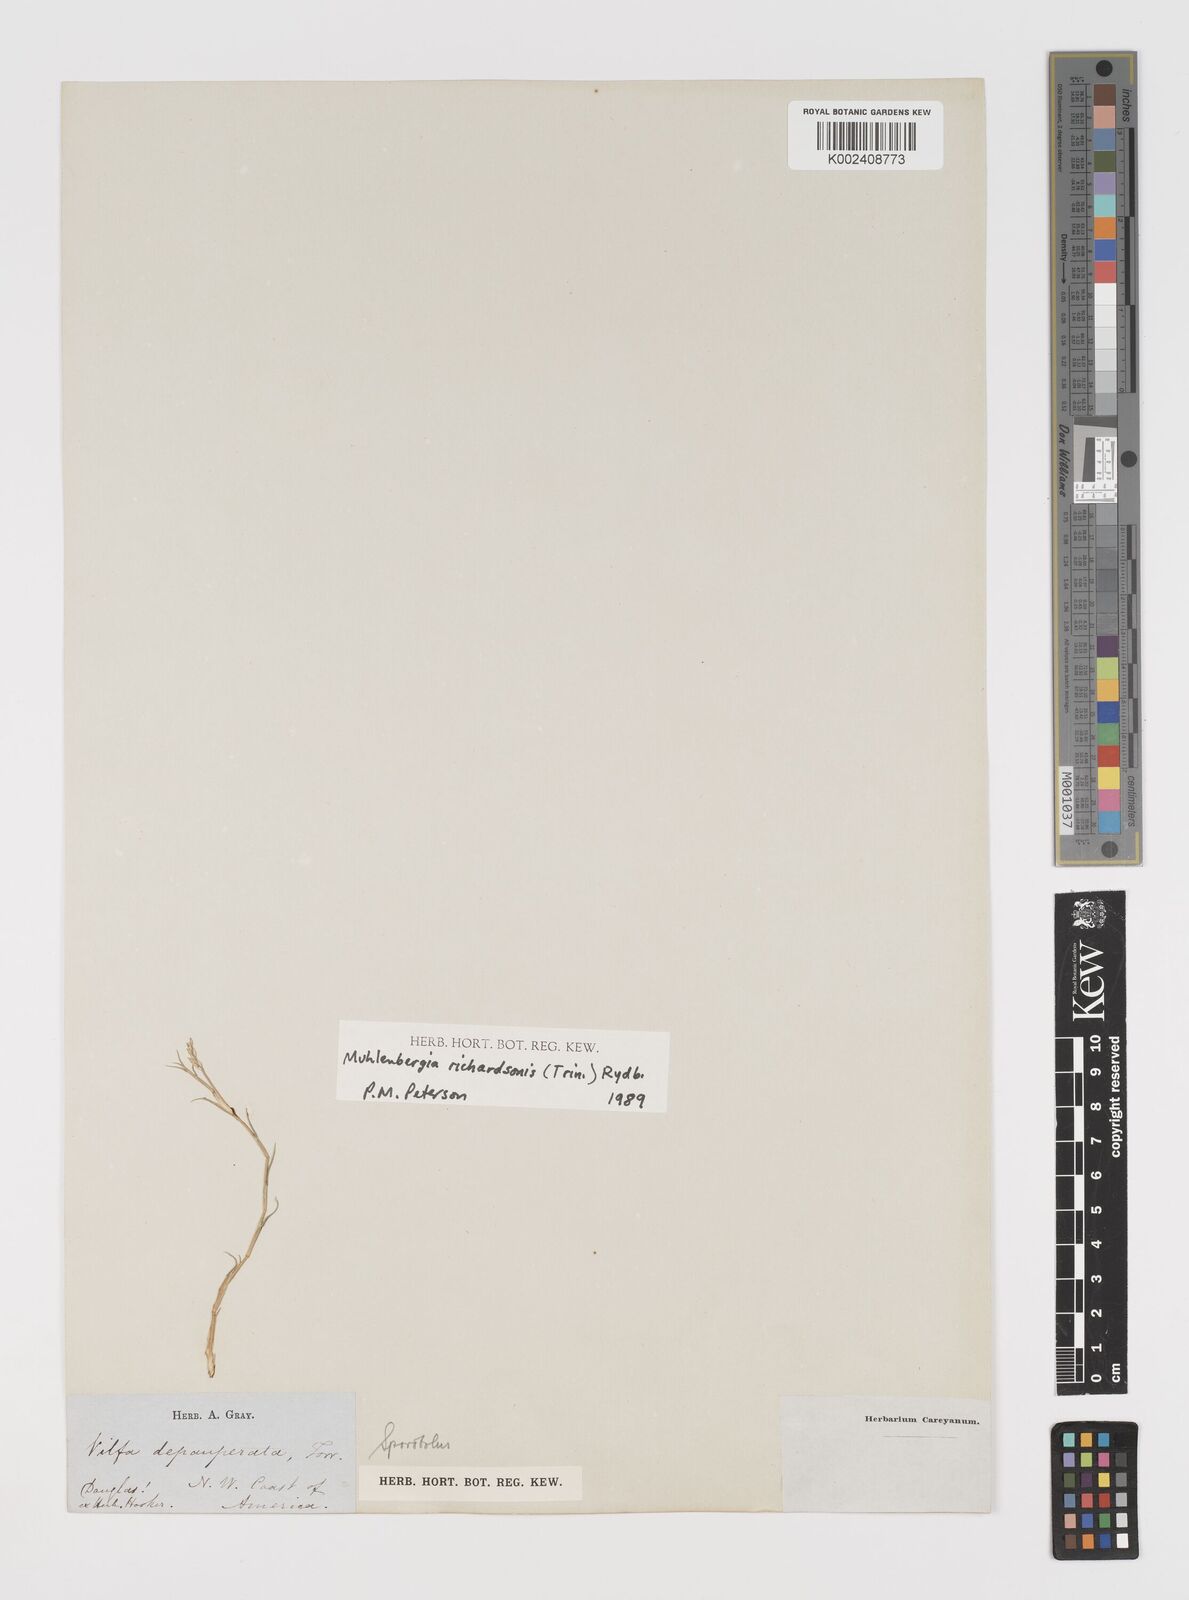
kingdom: Plantae
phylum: Tracheophyta
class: Liliopsida
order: Poales
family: Poaceae
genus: Muhlenbergia
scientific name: Muhlenbergia richardsonis
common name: Mat muhly
